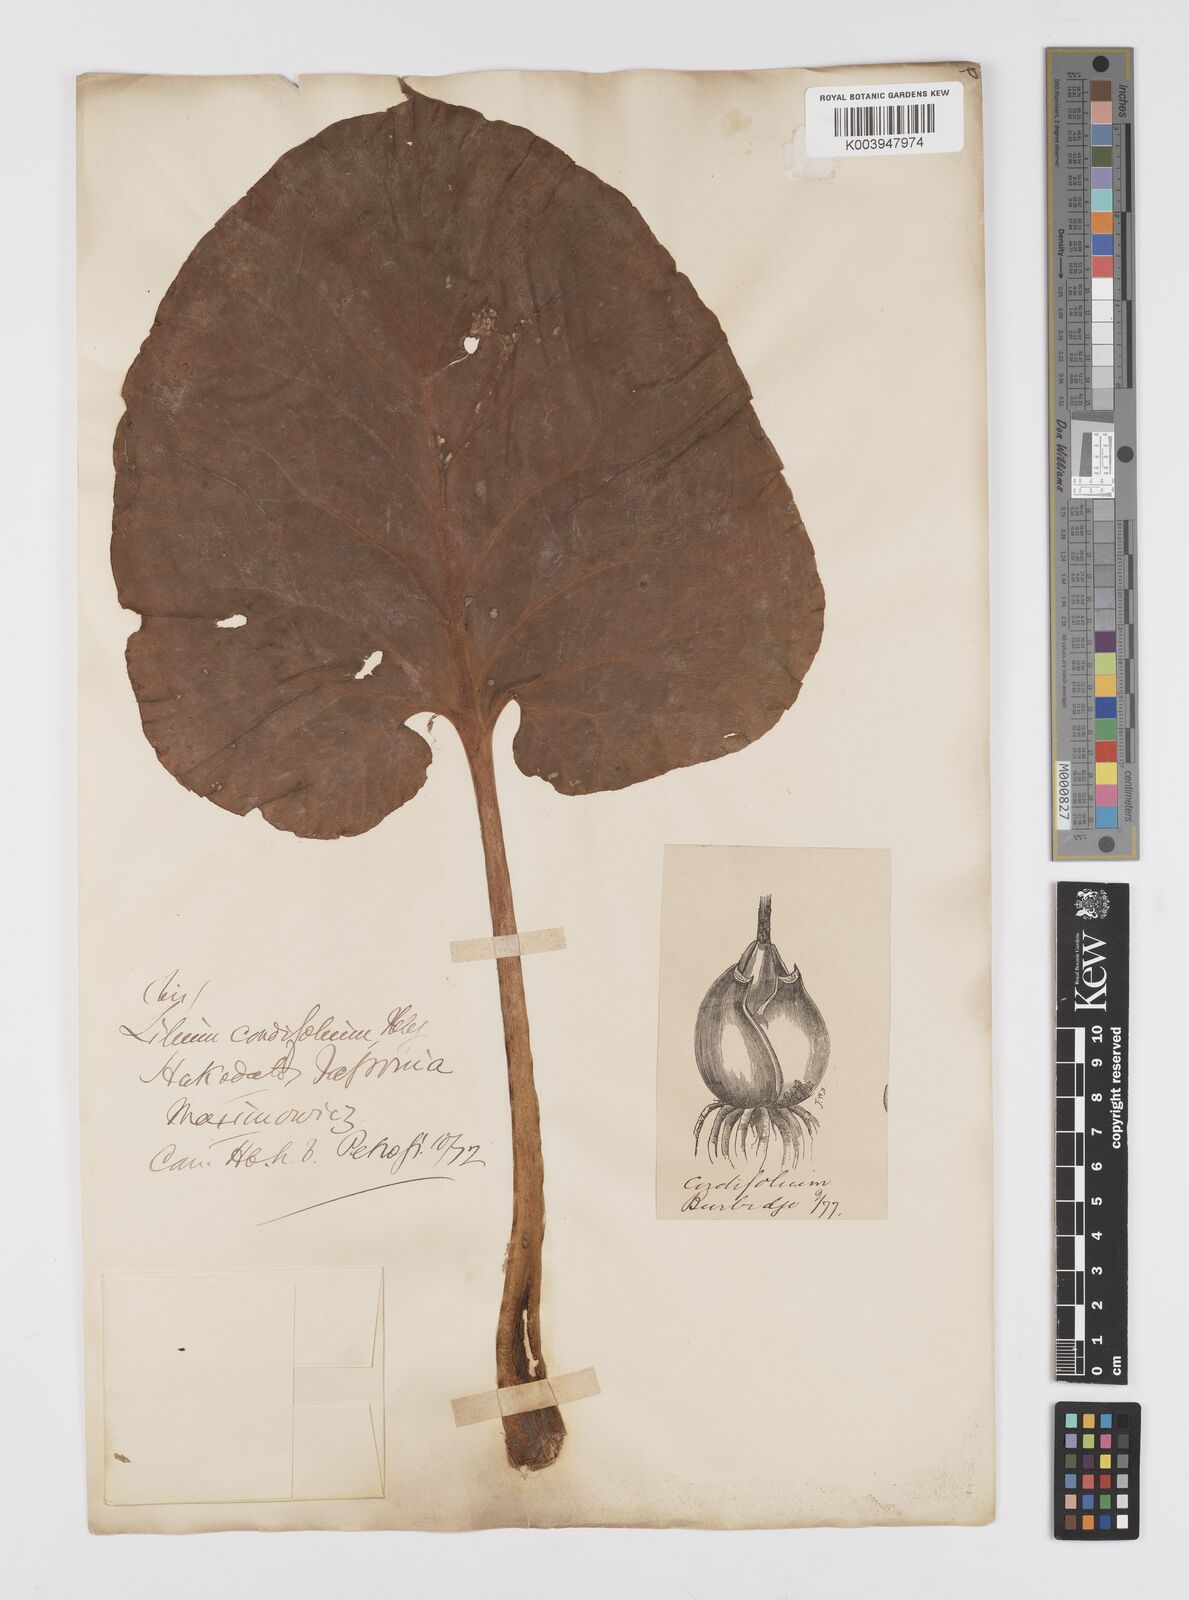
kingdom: Plantae
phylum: Tracheophyta
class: Liliopsida
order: Liliales
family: Liliaceae
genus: Cardiocrinum
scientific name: Cardiocrinum
